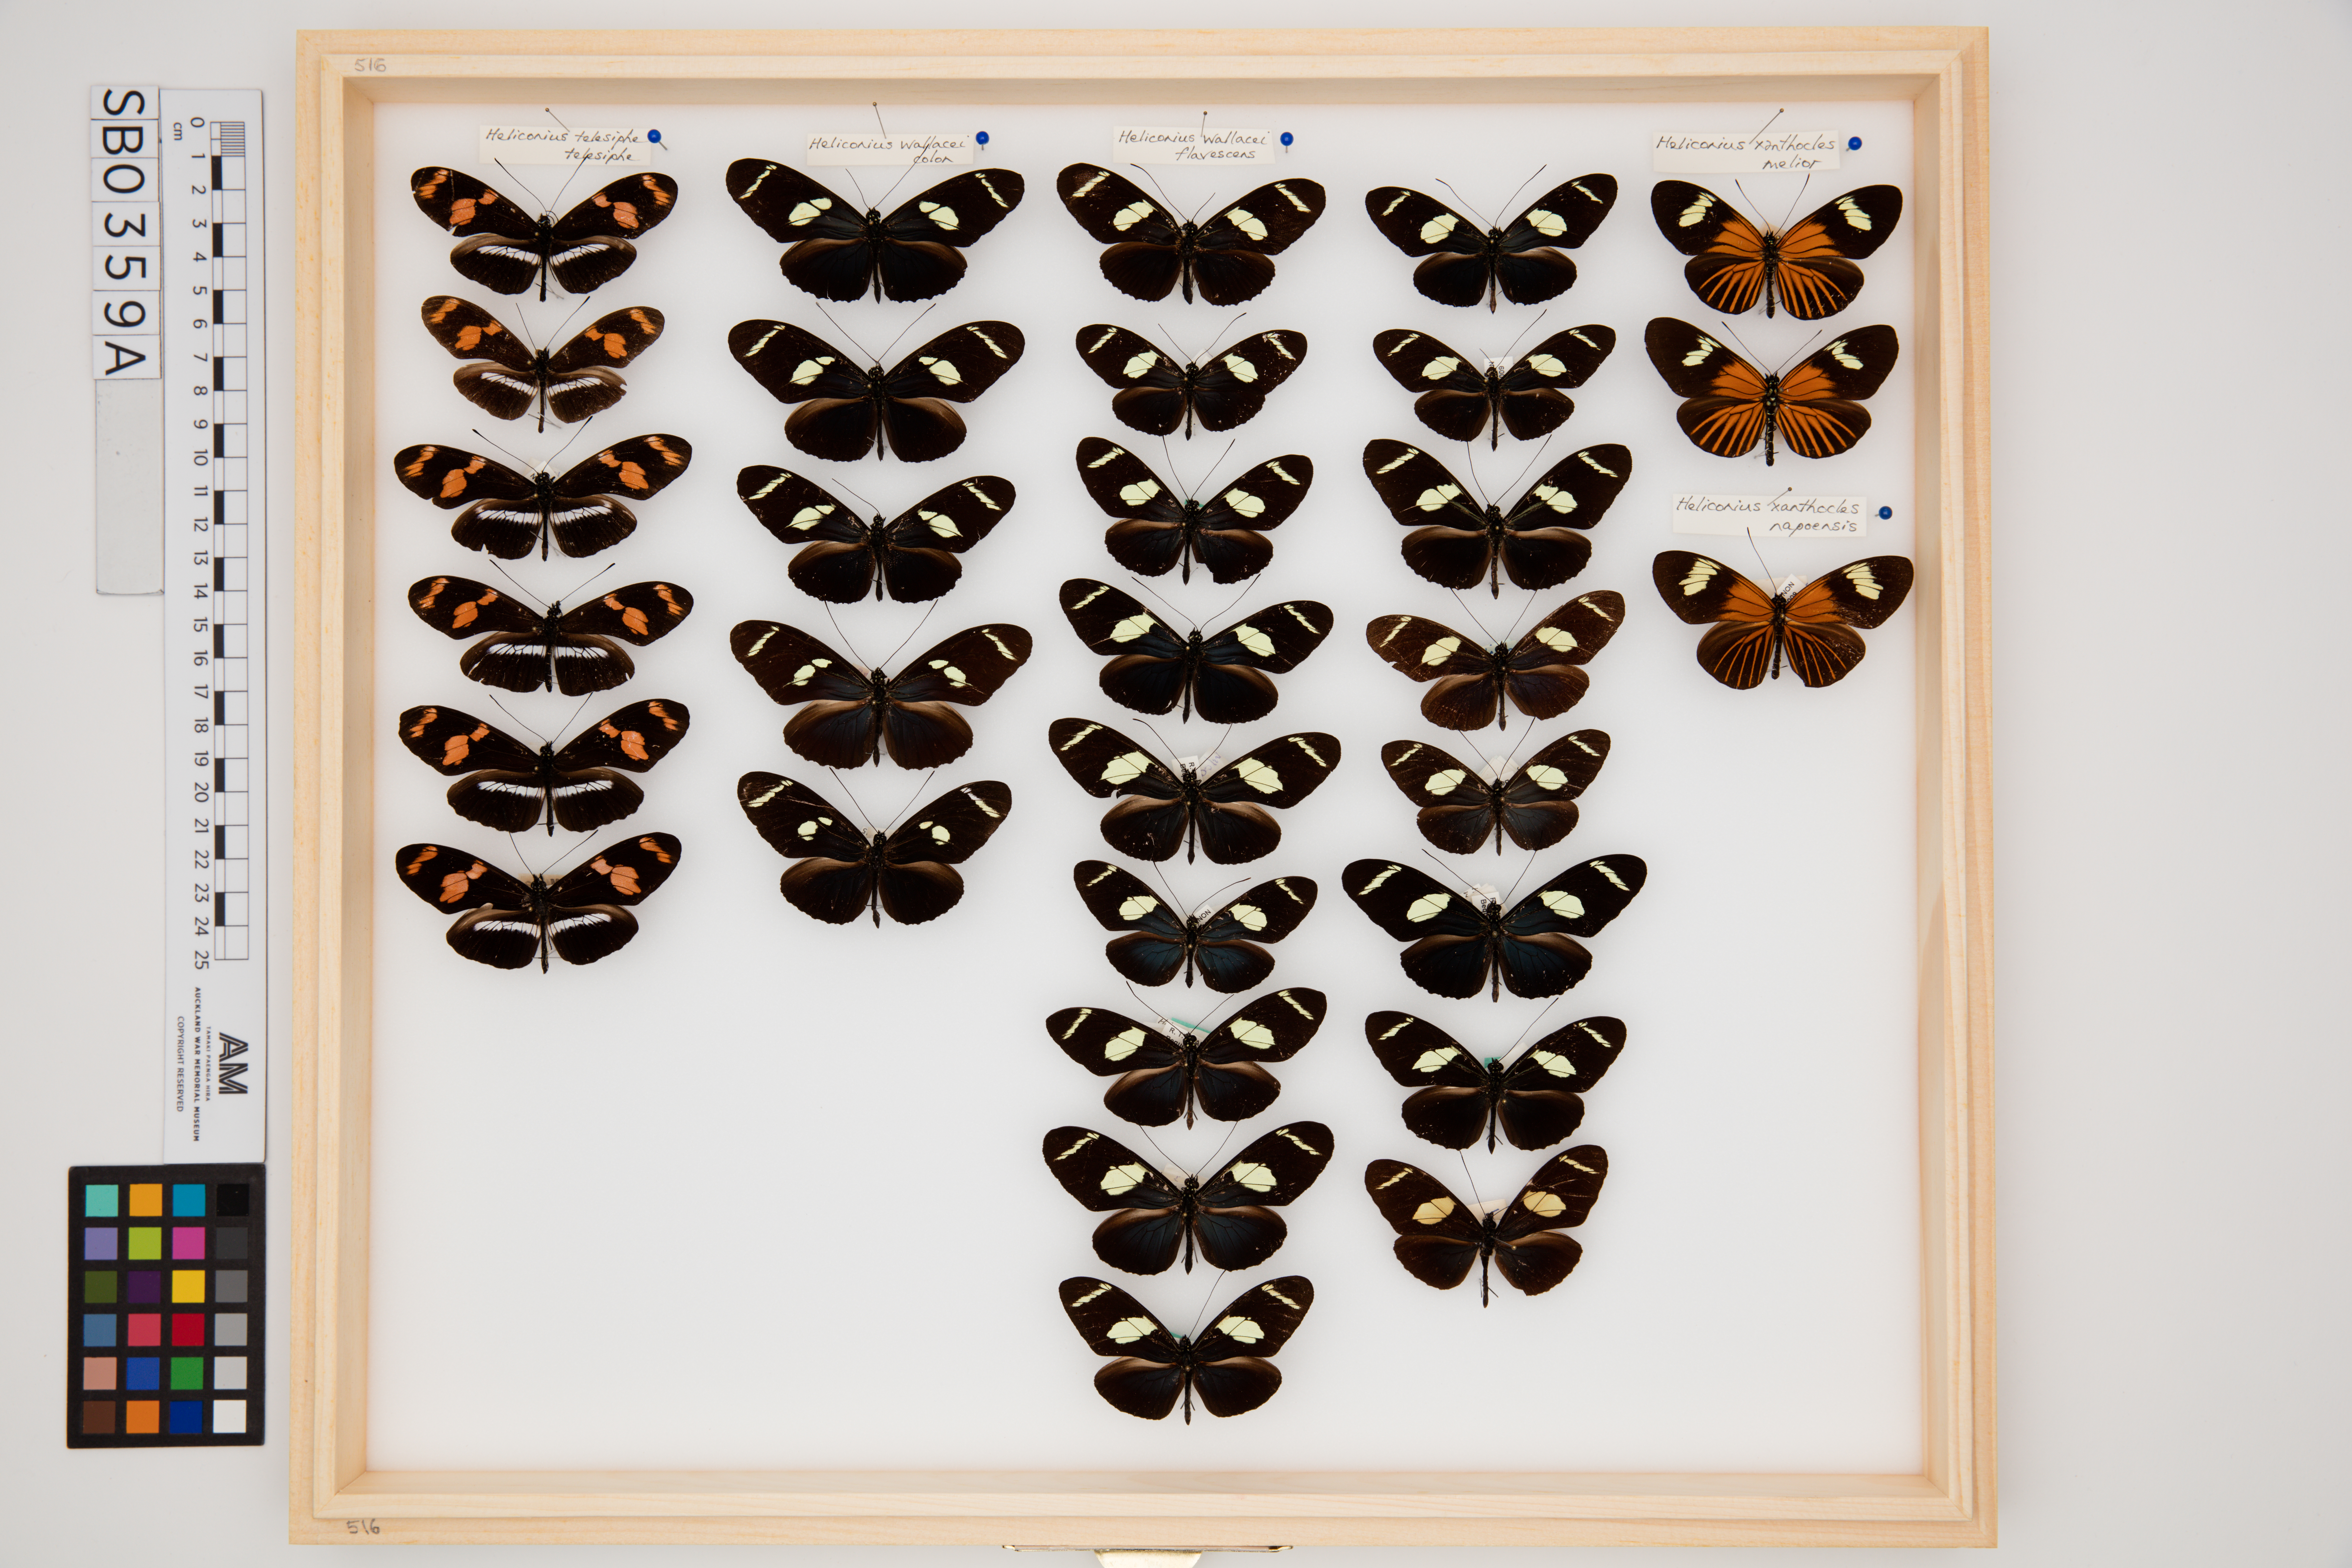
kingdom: Animalia
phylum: Arthropoda
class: Insecta
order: Lepidoptera
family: Nymphalidae
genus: Heliconius
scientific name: Heliconius wallacei
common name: Wallace's longwing
